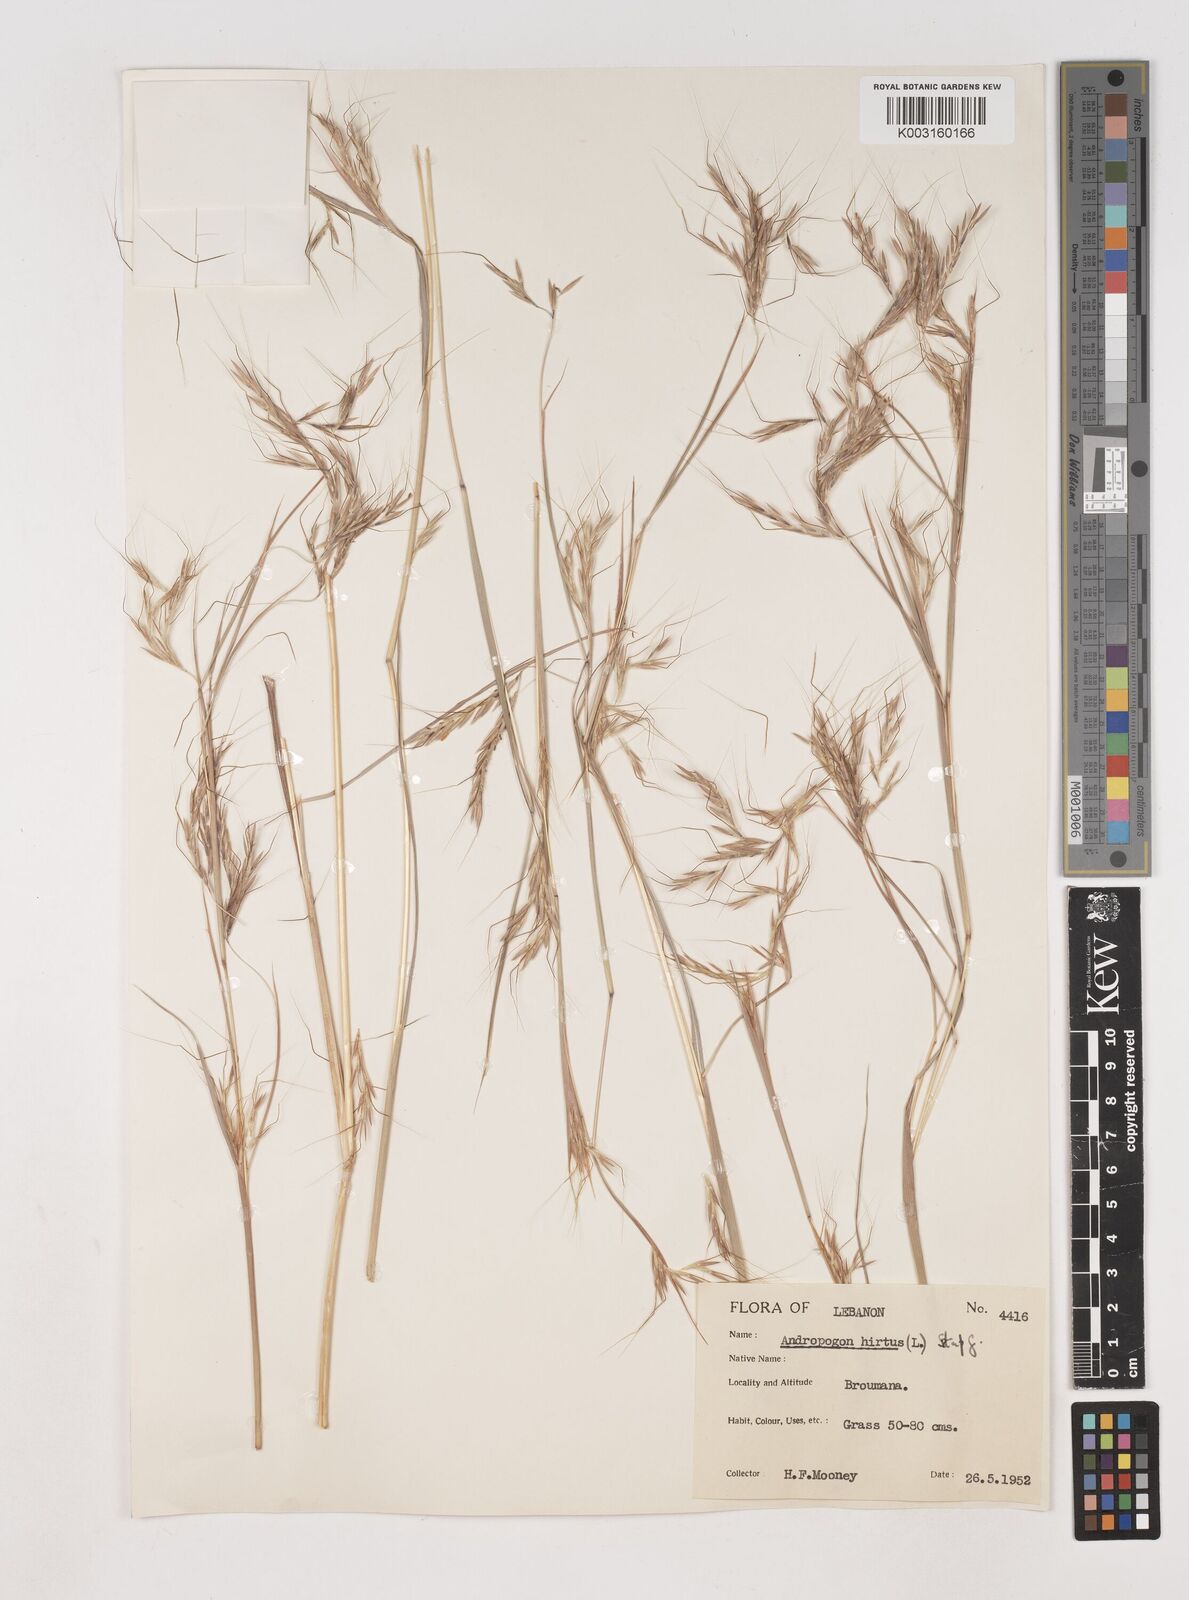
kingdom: Plantae
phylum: Tracheophyta
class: Liliopsida
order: Poales
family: Poaceae
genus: Hyparrhenia
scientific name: Hyparrhenia hirta
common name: Thatching grass
